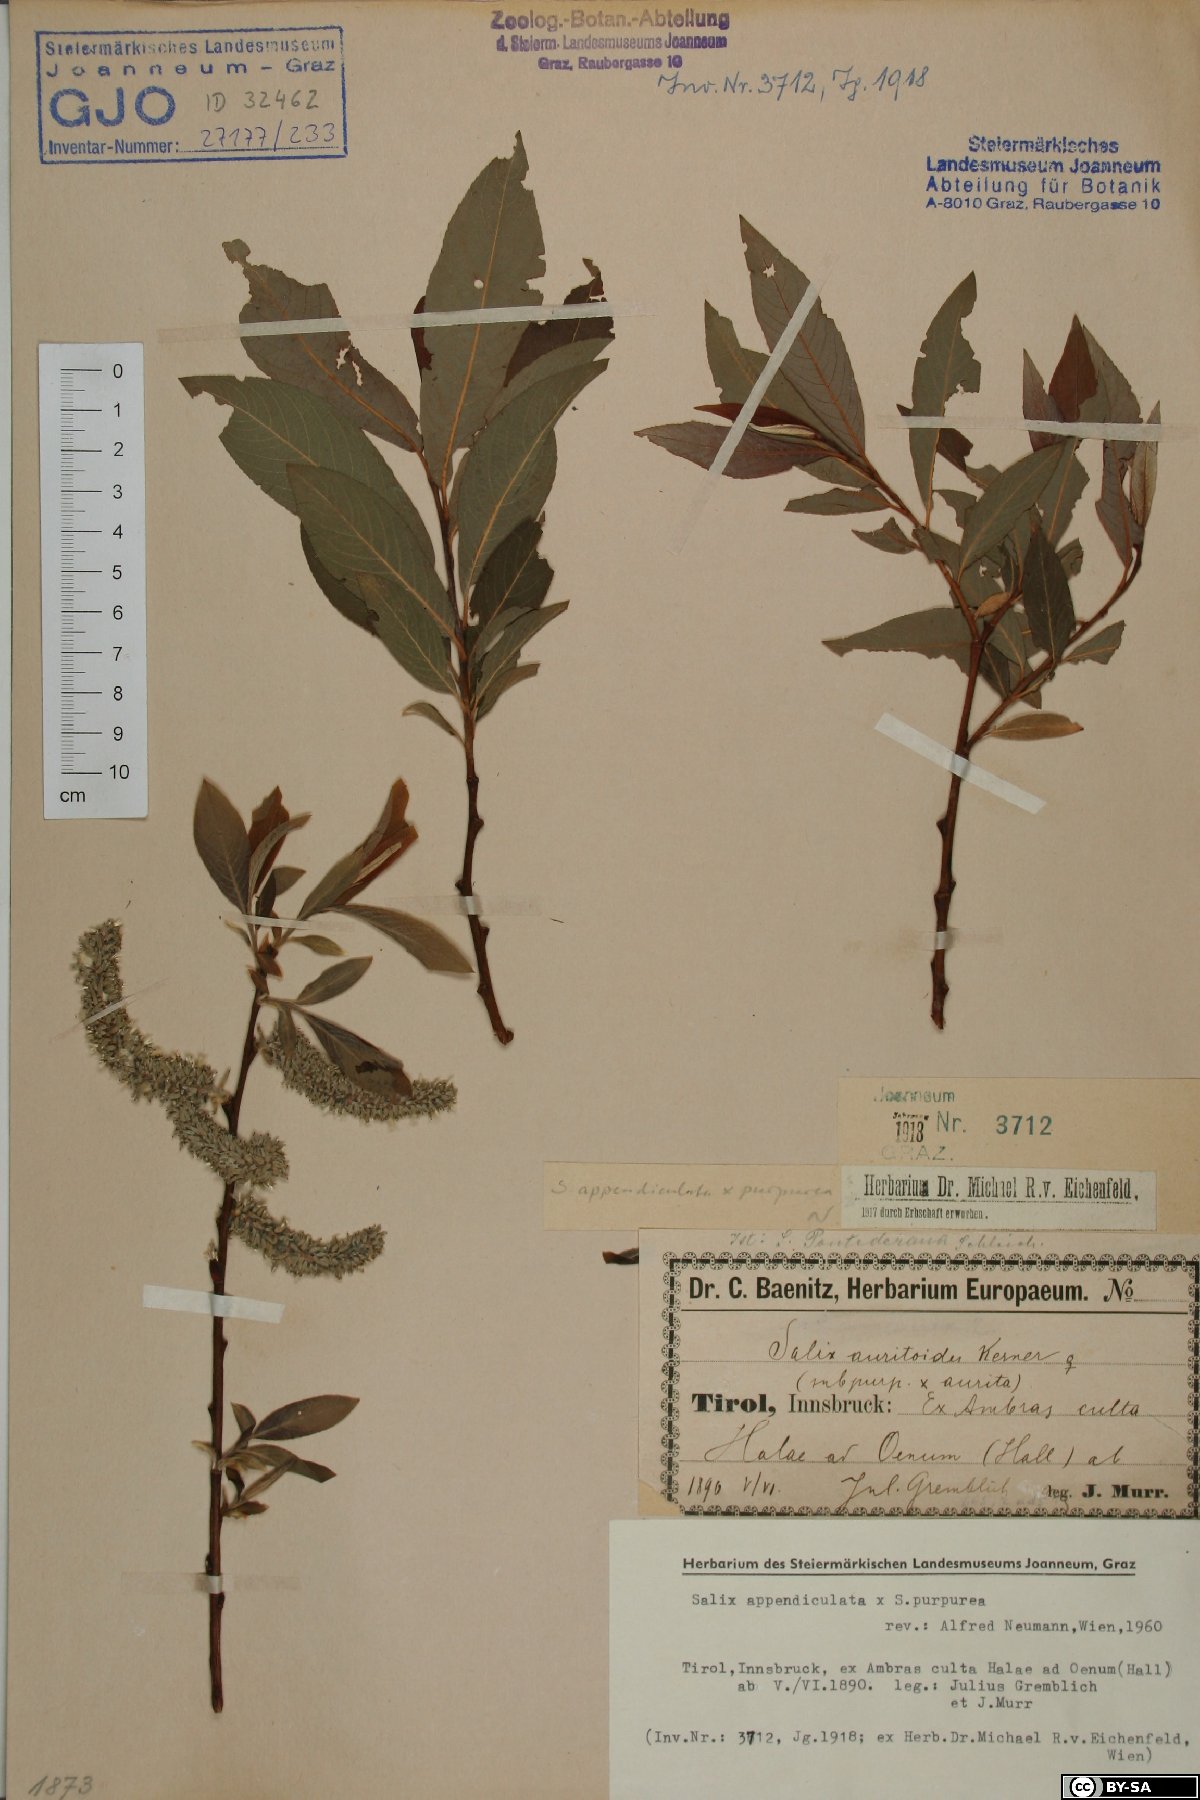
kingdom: Plantae
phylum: Tracheophyta
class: Magnoliopsida
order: Malpighiales
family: Salicaceae
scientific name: Salicaceae
